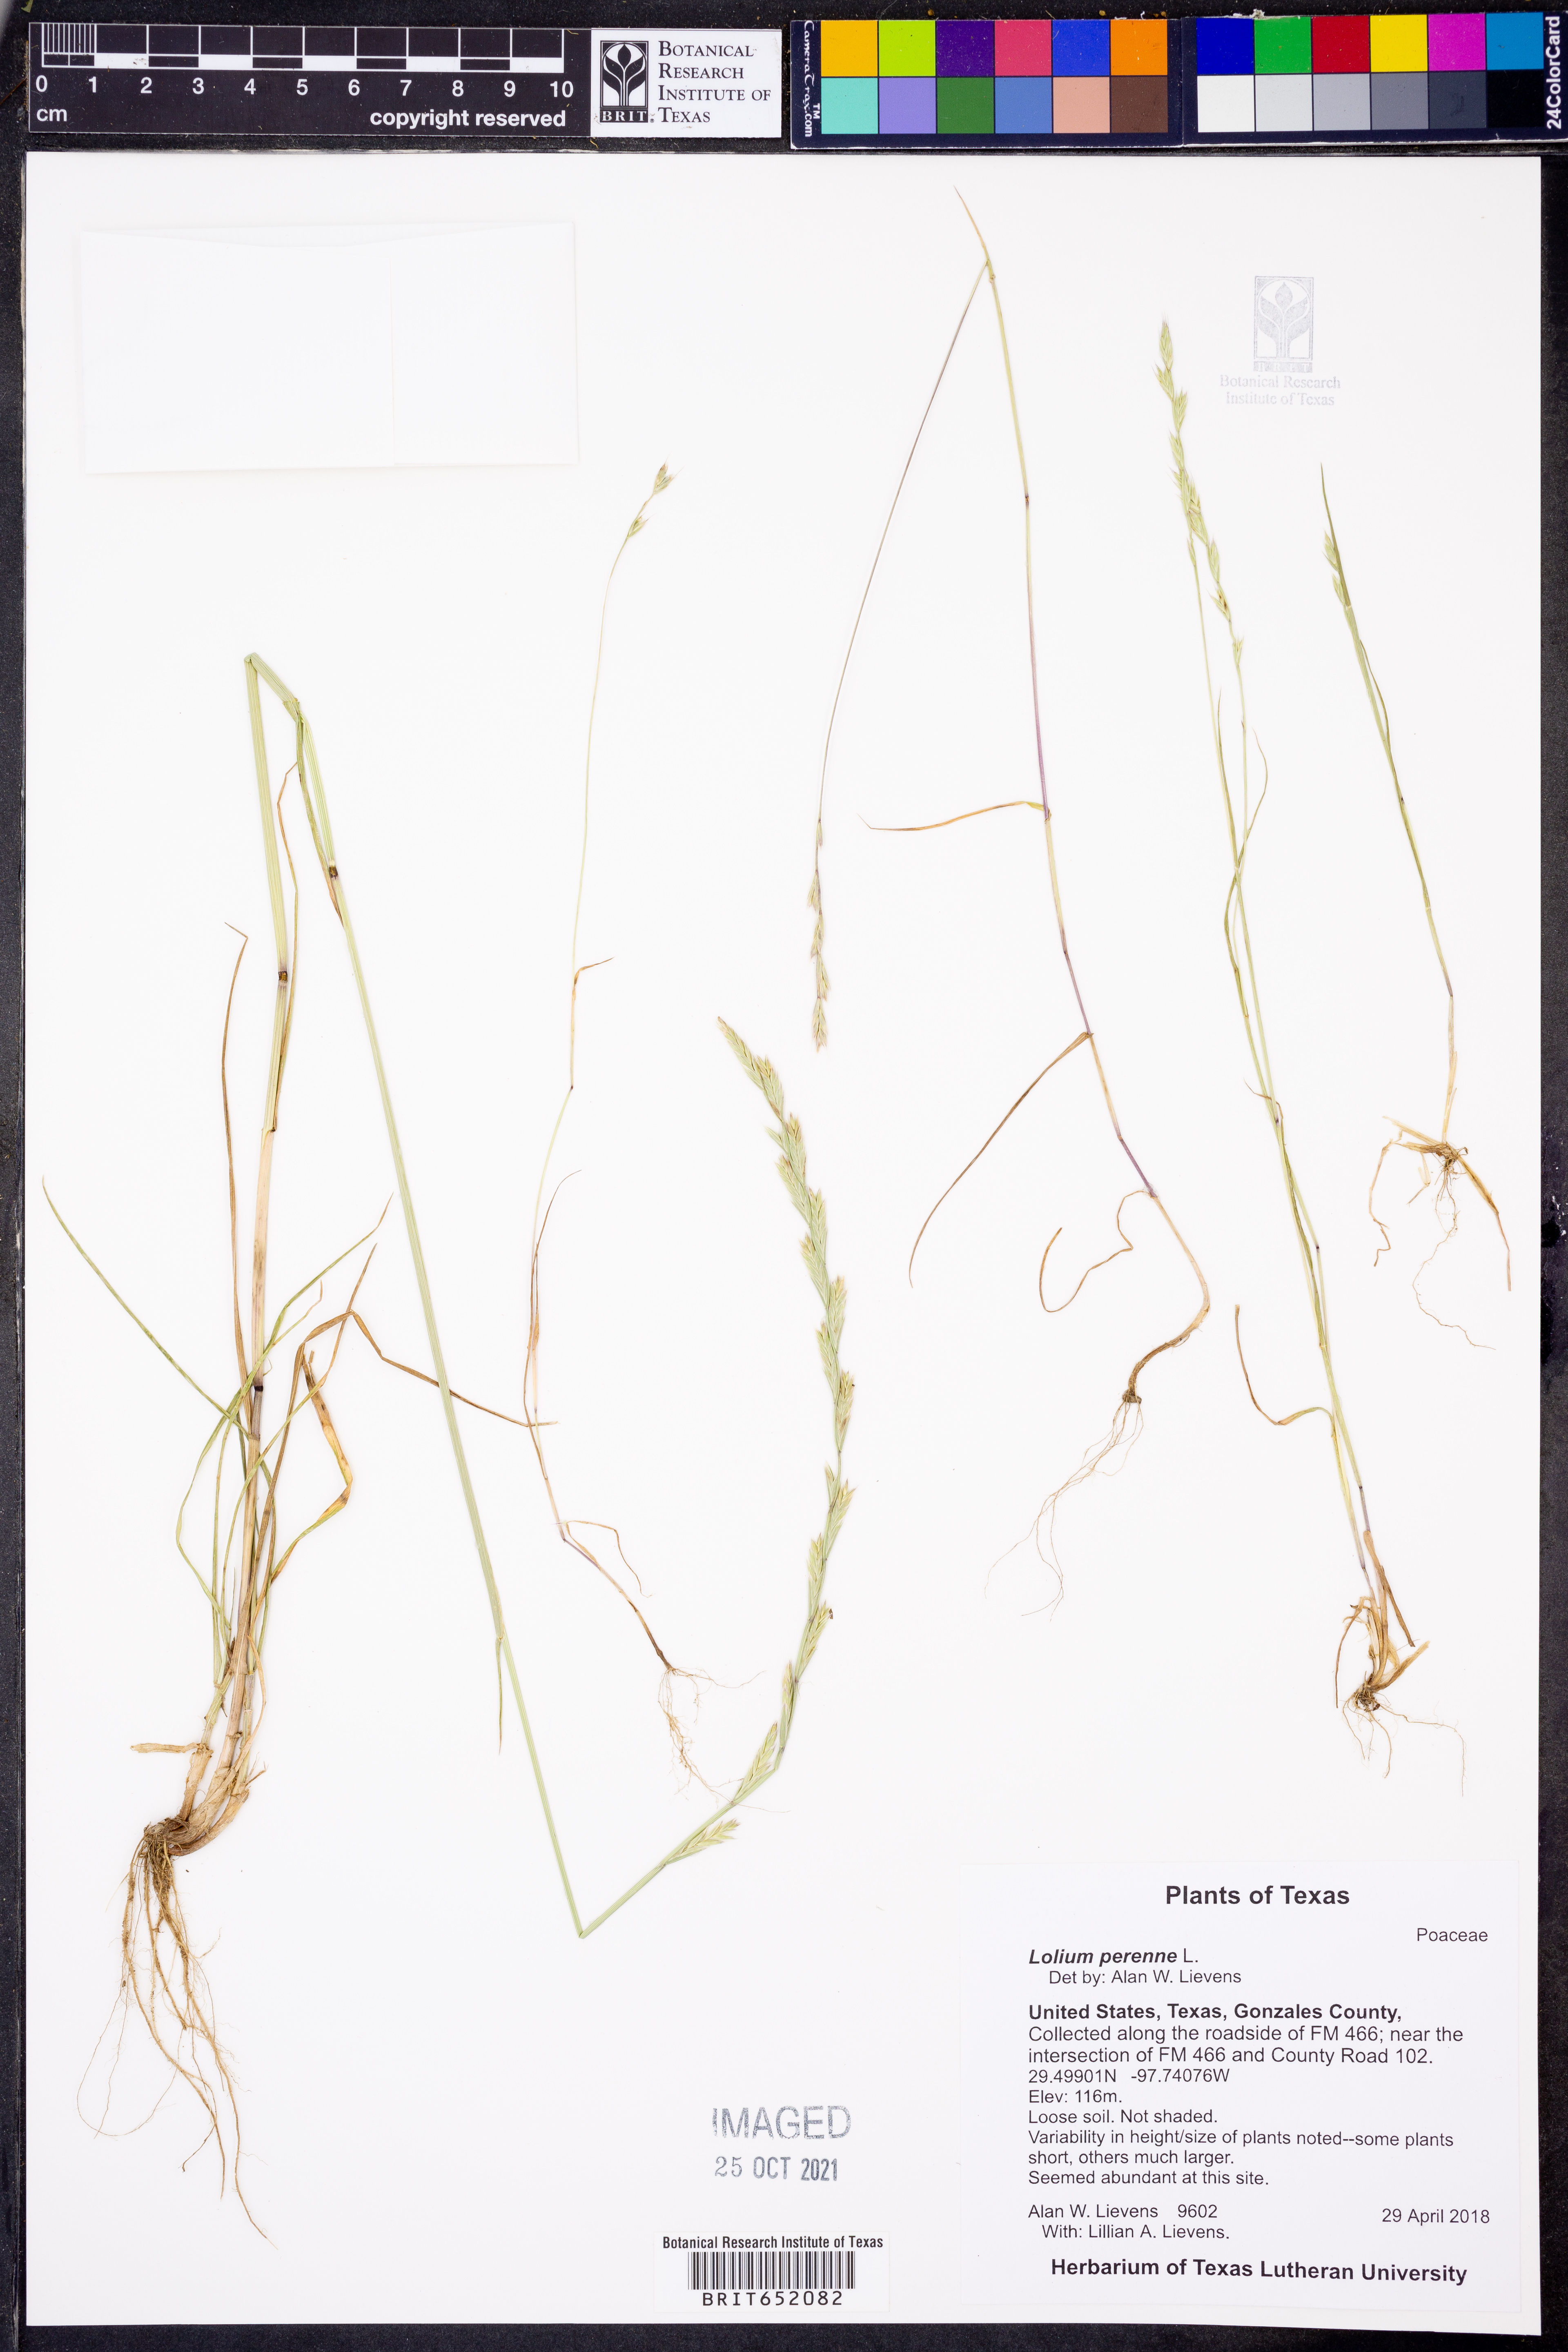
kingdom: Plantae
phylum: Tracheophyta
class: Liliopsida
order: Poales
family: Poaceae
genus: Lolium
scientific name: Lolium perenne
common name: Perennial ryegrass
